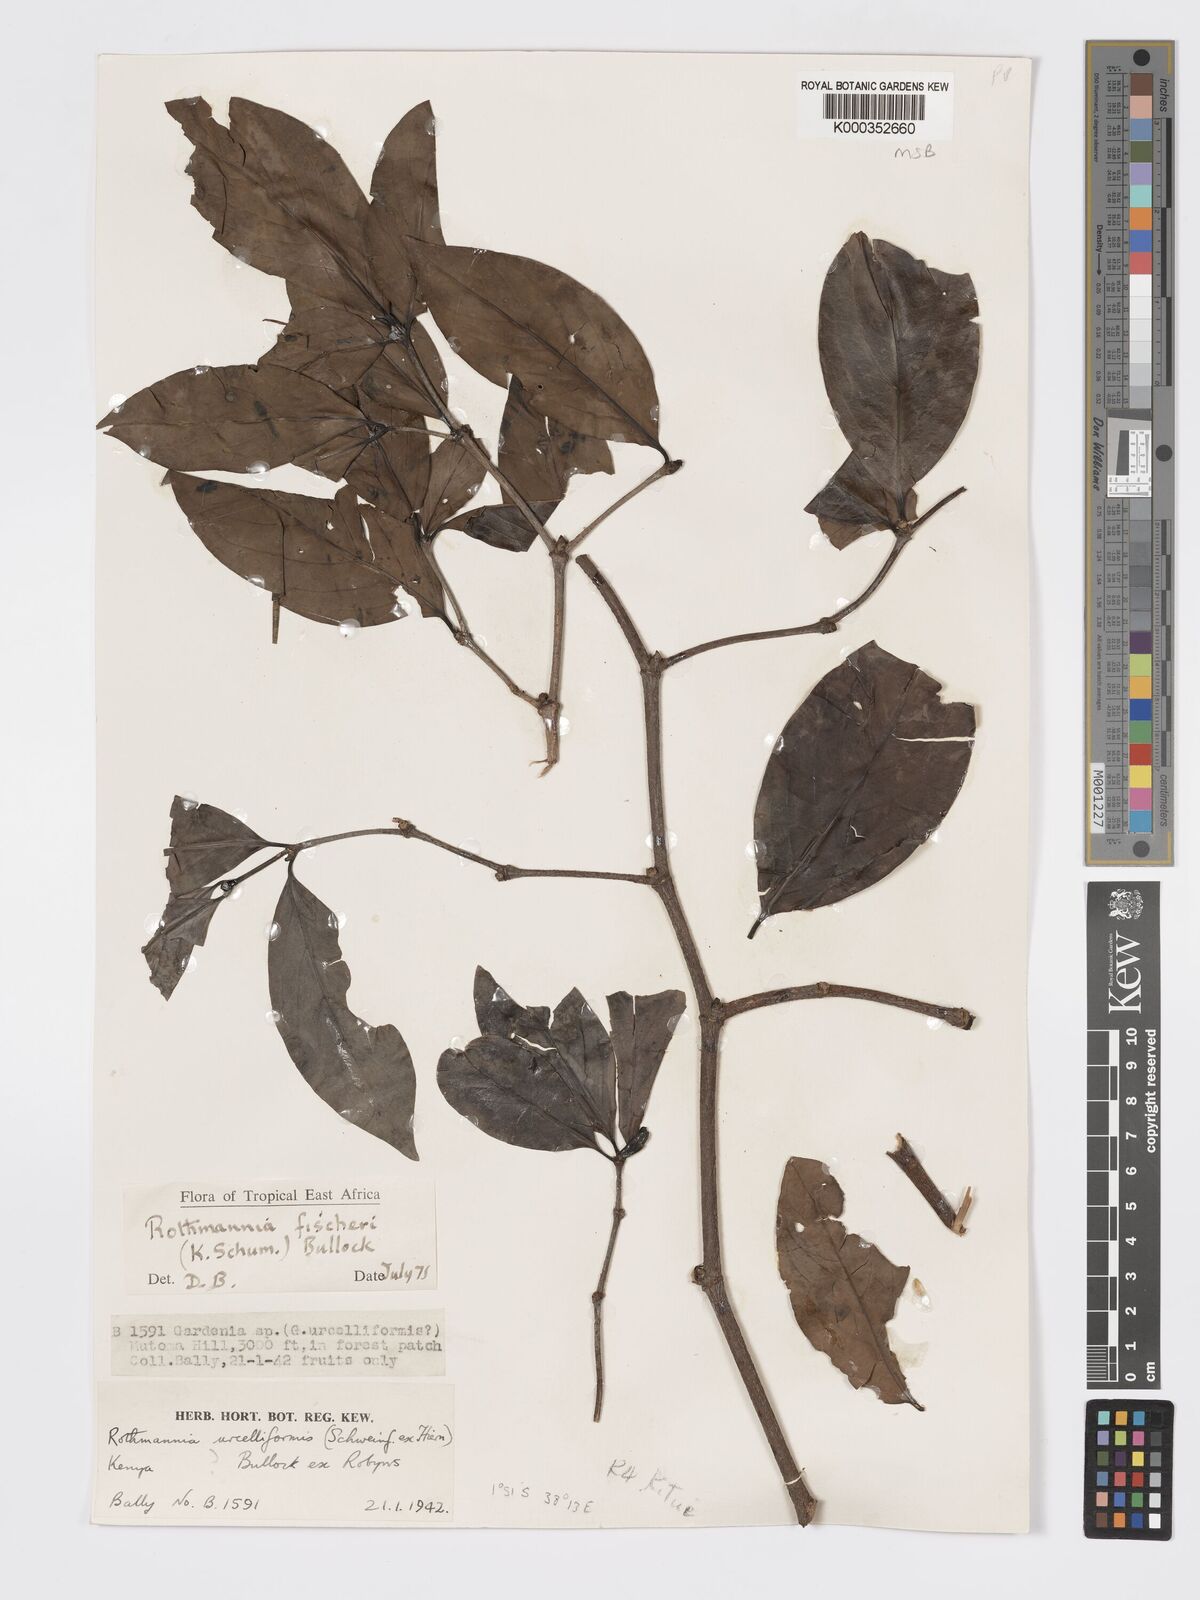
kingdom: Plantae
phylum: Tracheophyta
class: Magnoliopsida
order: Gentianales
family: Rubiaceae
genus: Rothmannia
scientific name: Rothmannia fischeri
